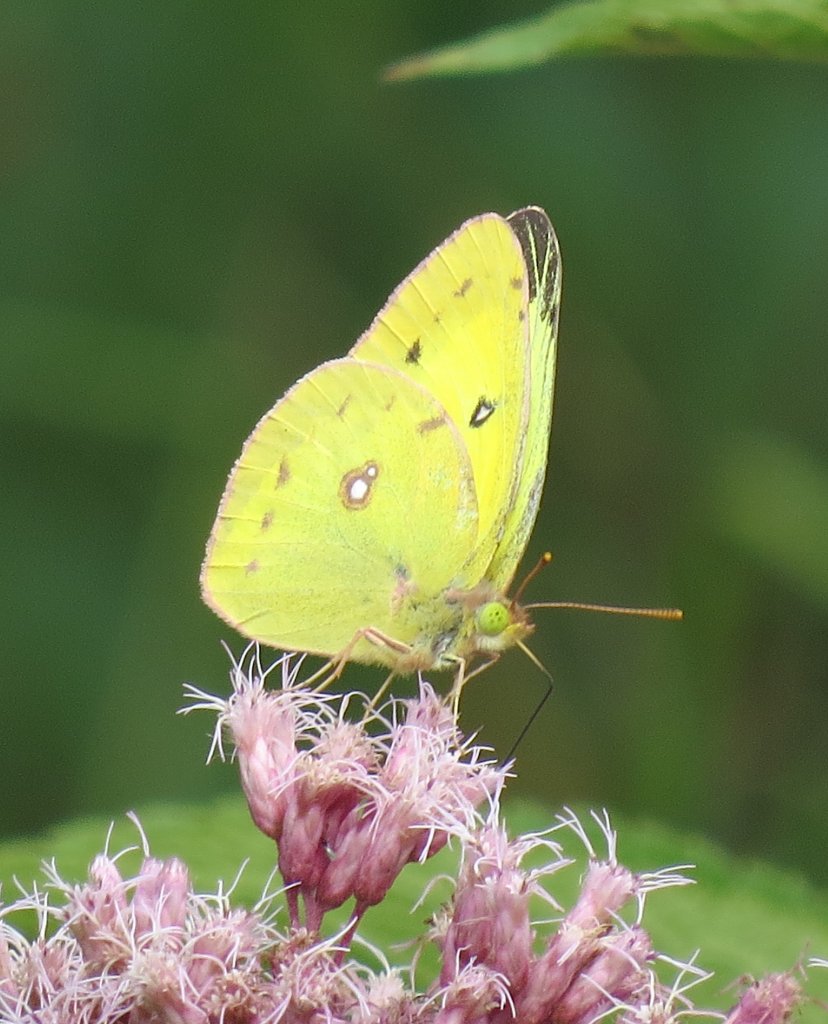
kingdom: Animalia
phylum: Arthropoda
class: Insecta
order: Lepidoptera
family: Pieridae
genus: Colias
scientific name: Colias eurytheme
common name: Orange Sulphur
